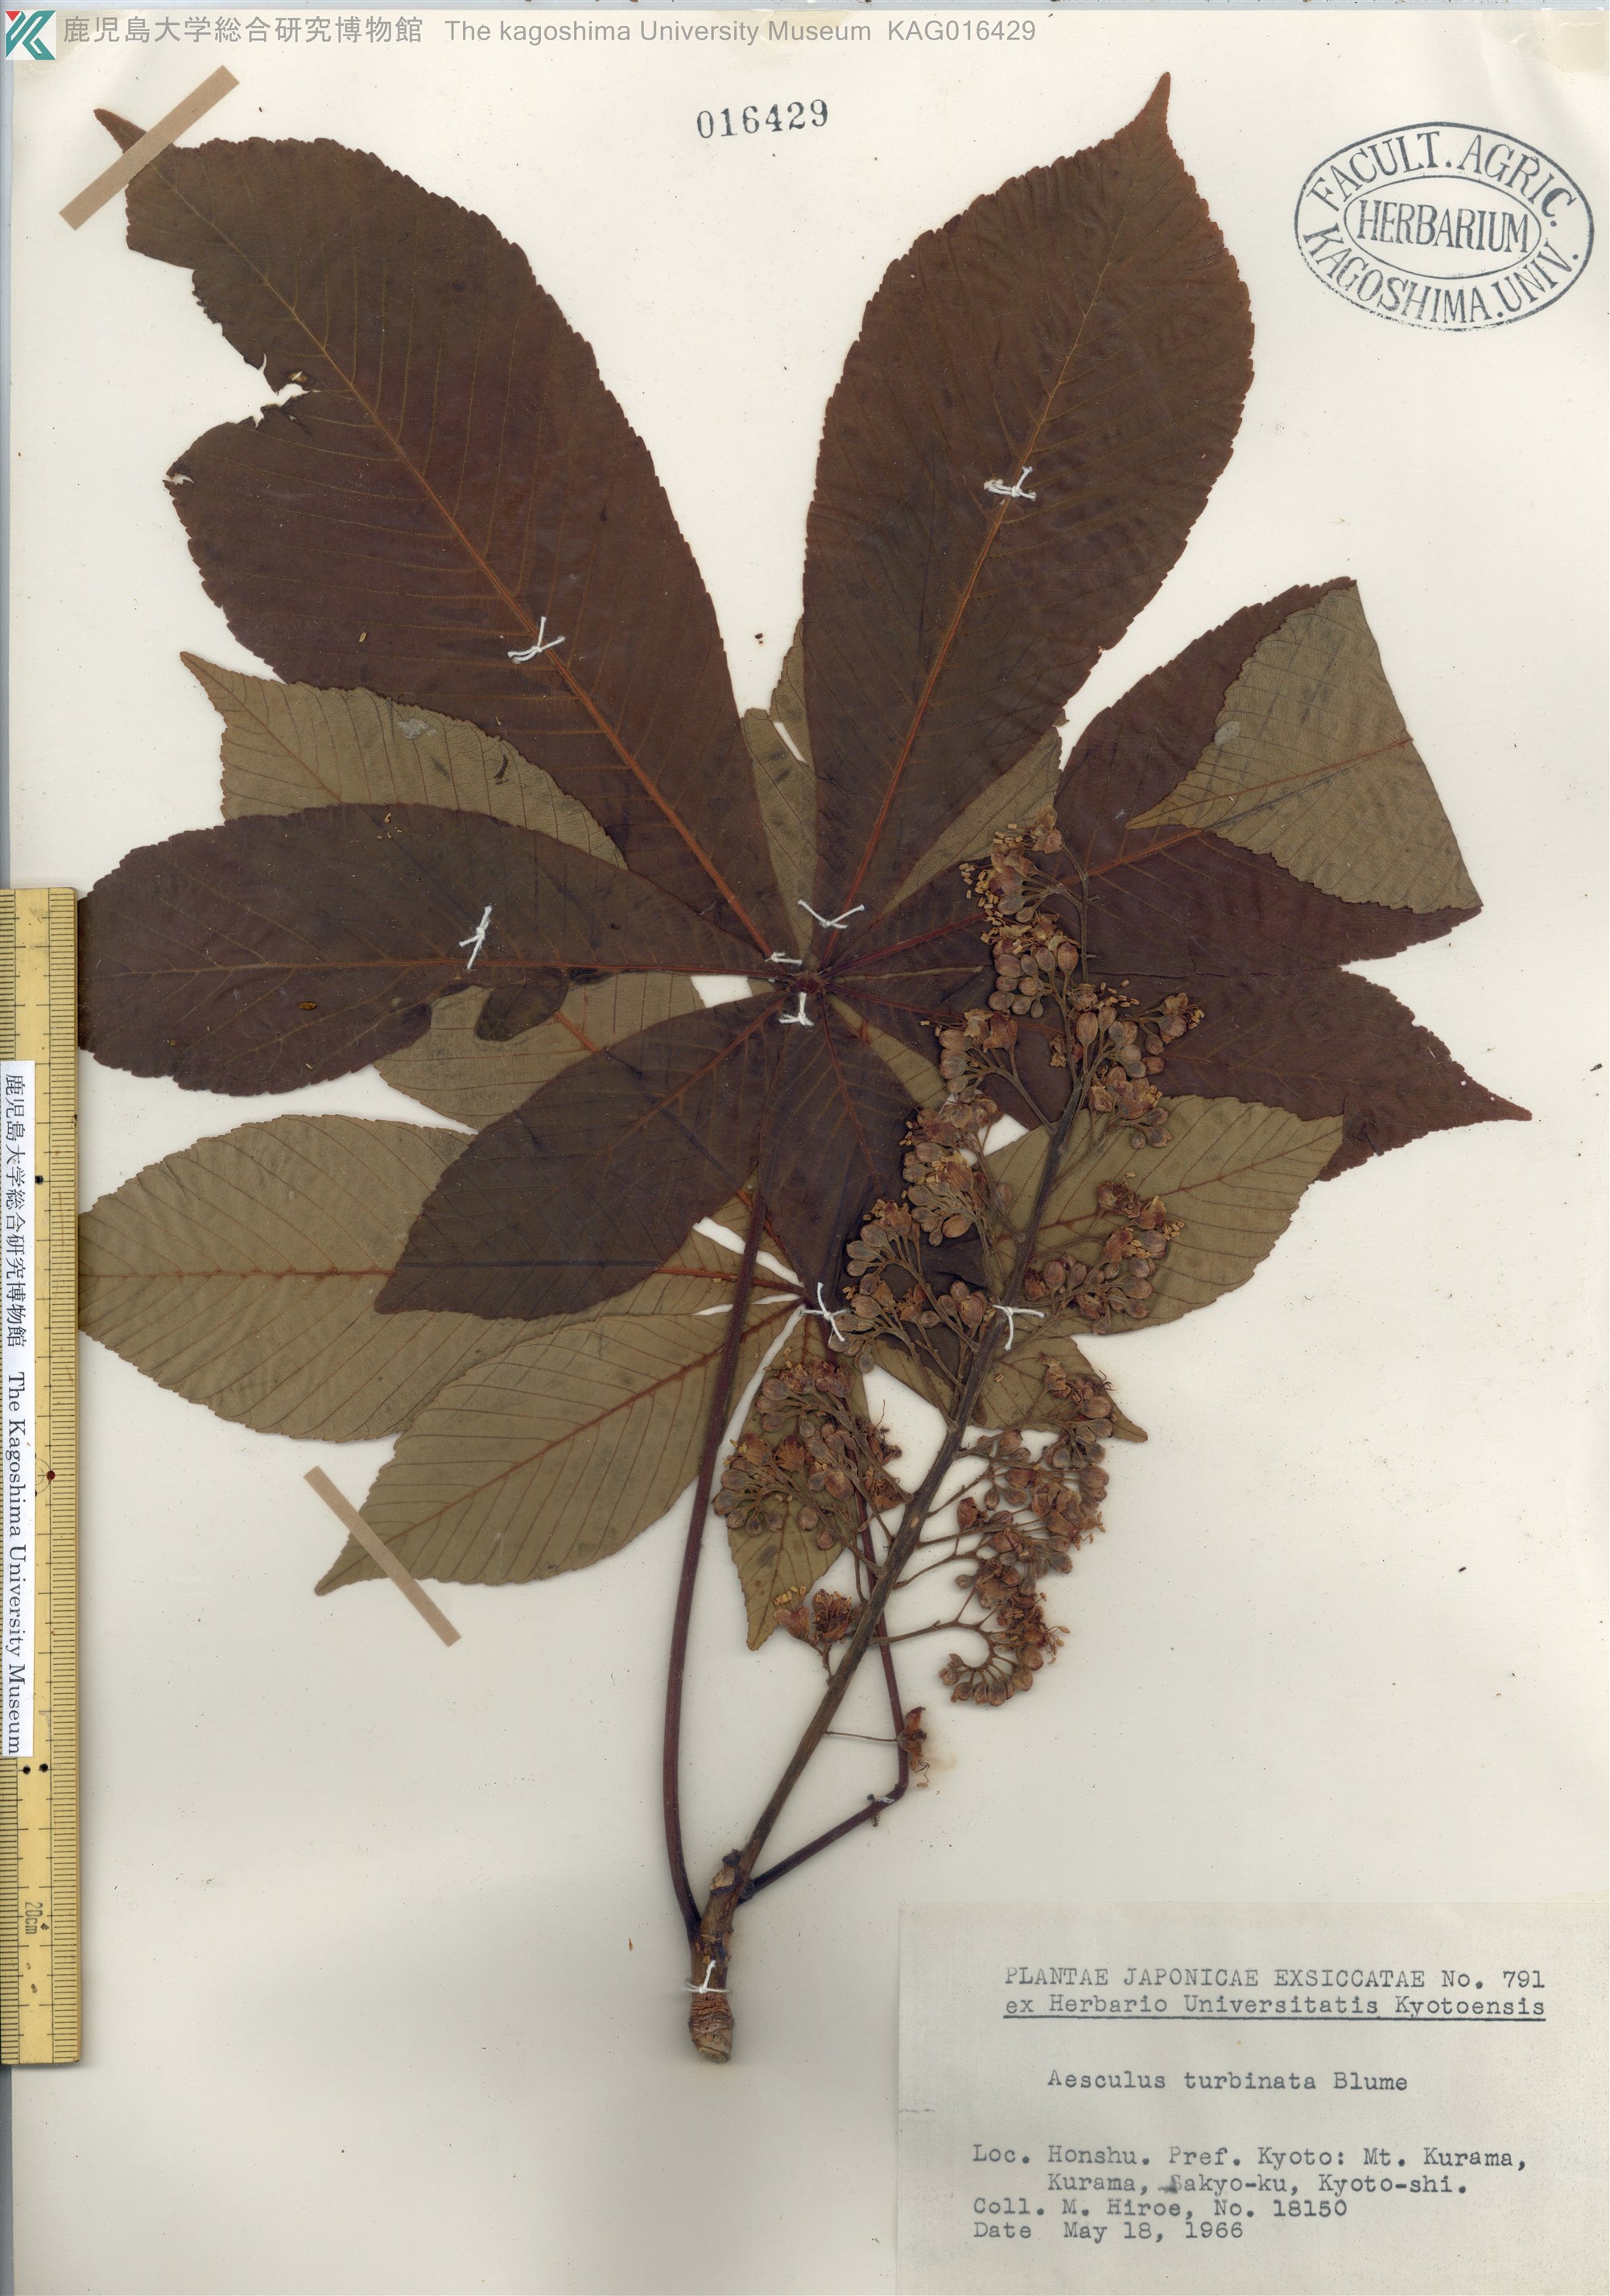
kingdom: Plantae
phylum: Tracheophyta
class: Magnoliopsida
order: Sapindales
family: Sapindaceae
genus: Aesculus
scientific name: Aesculus turbinata
